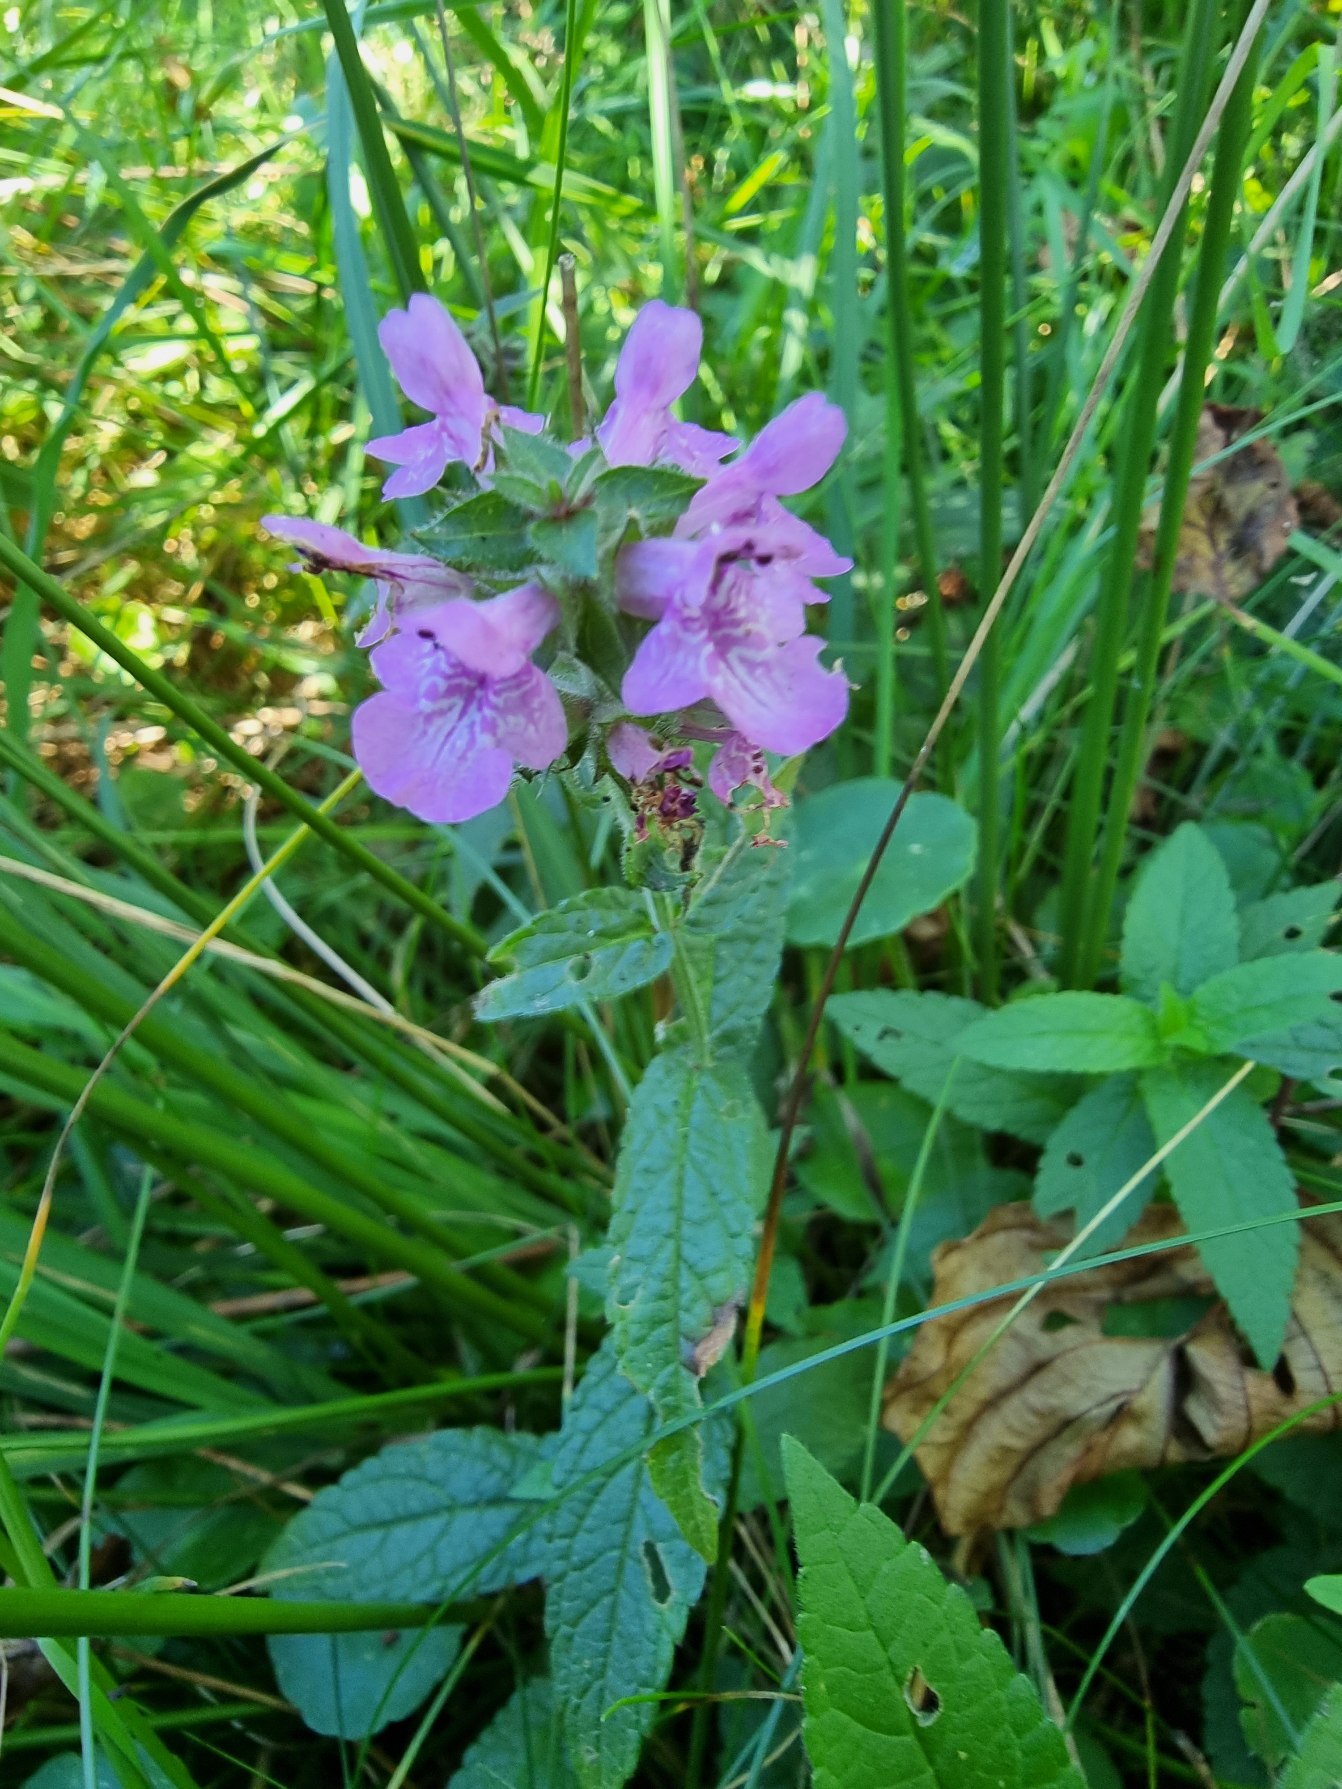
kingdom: Plantae
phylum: Tracheophyta
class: Magnoliopsida
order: Lamiales
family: Lamiaceae
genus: Stachys
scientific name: Stachys palustris
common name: Kær-galtetand
